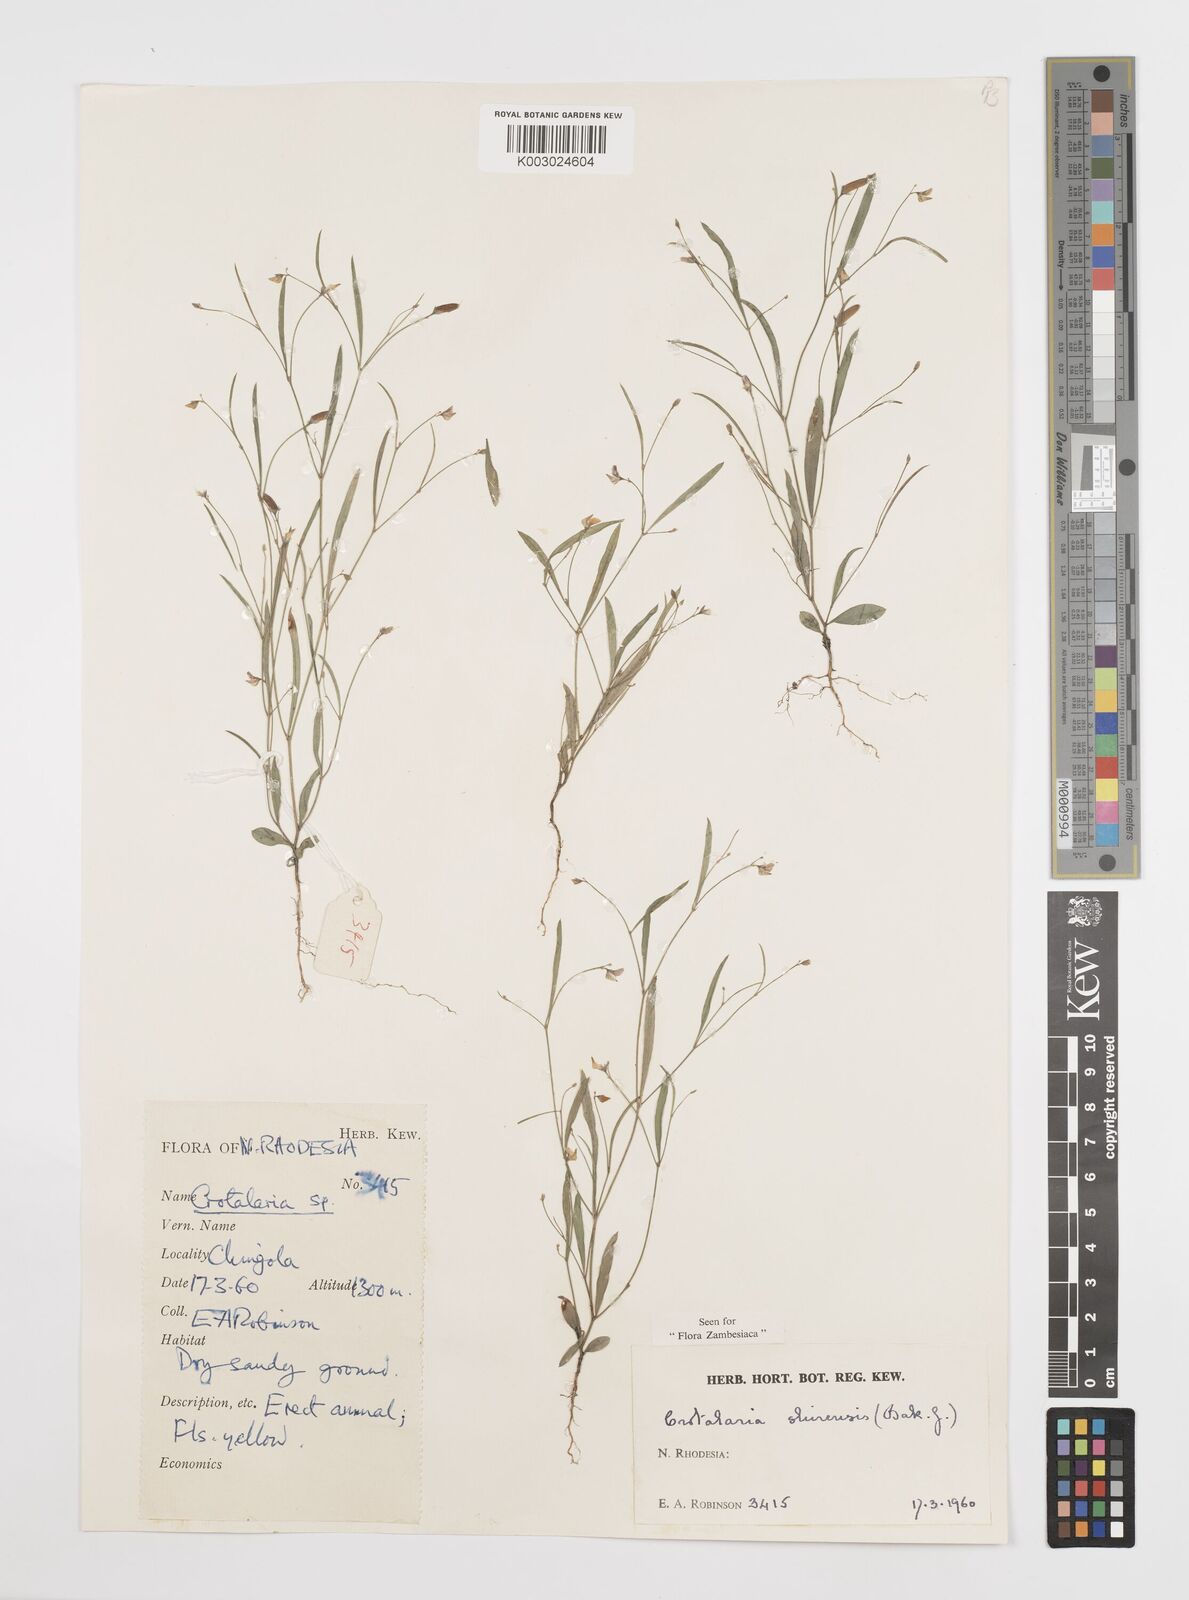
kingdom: Plantae
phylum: Tracheophyta
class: Magnoliopsida
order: Fabales
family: Fabaceae
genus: Crotalaria
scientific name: Crotalaria shirensis
